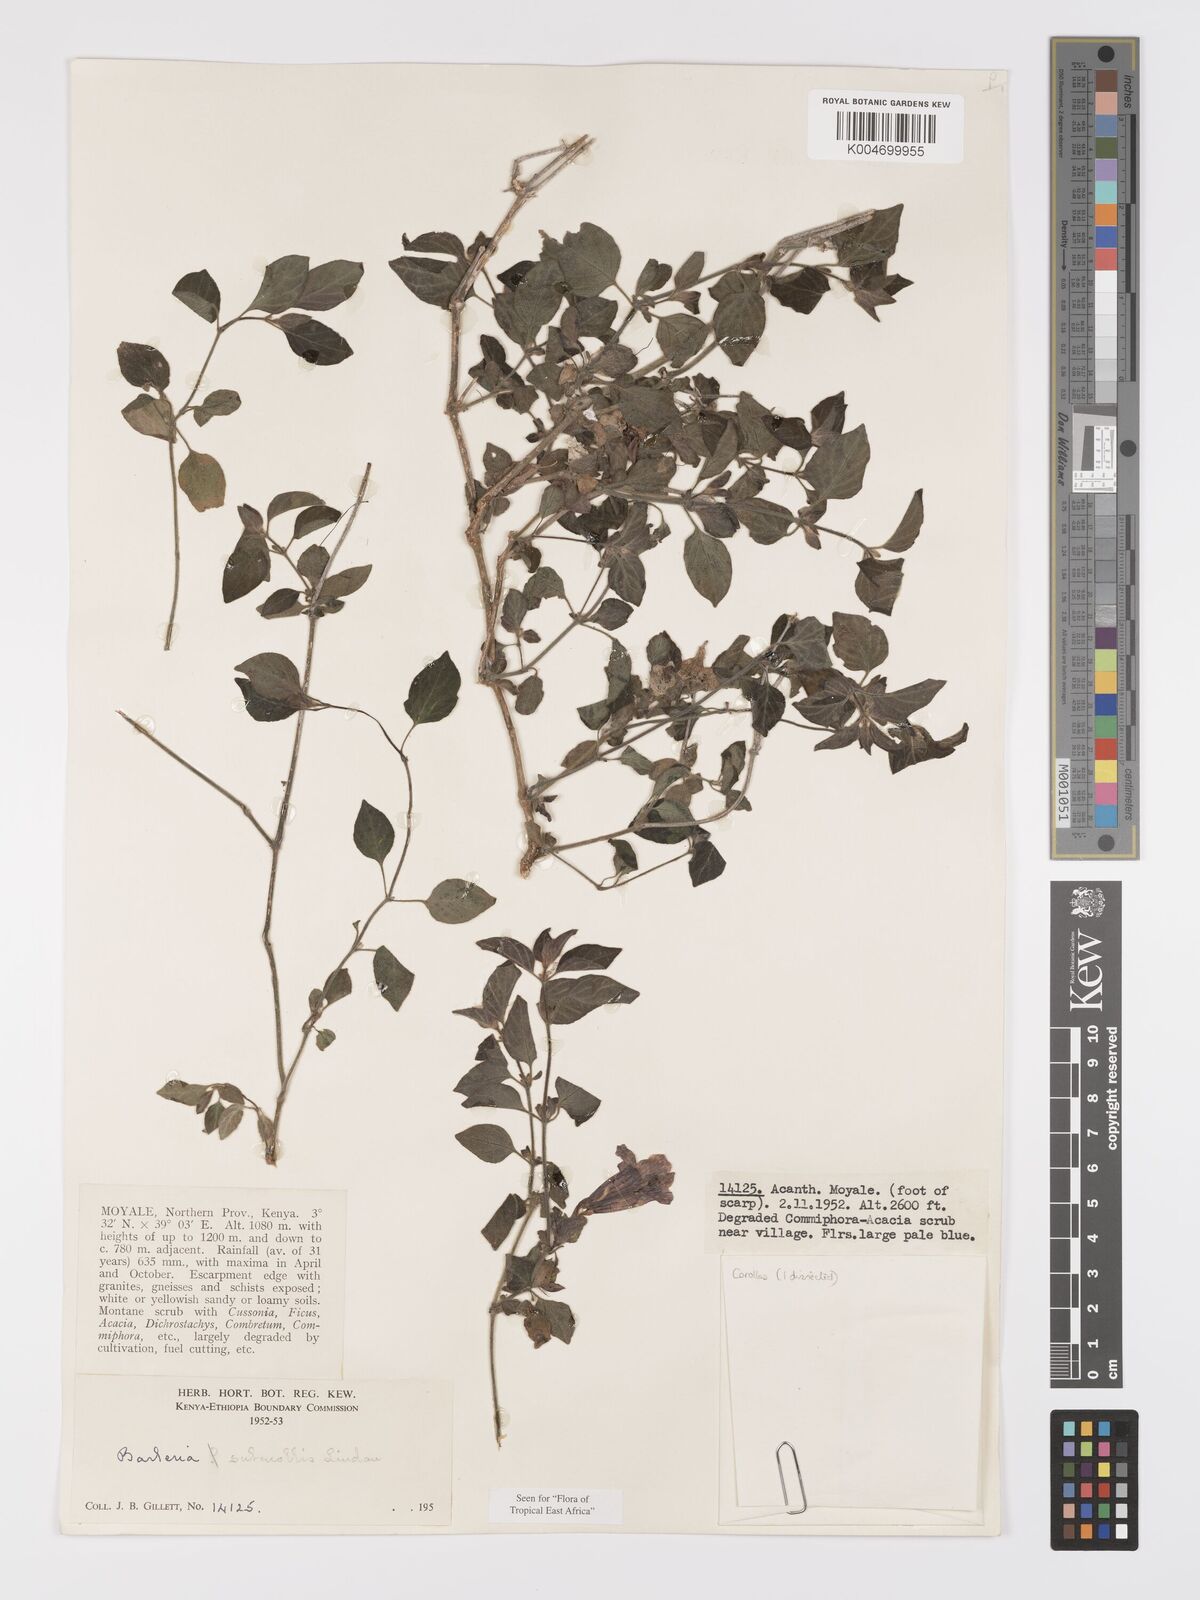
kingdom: Plantae
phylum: Tracheophyta
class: Magnoliopsida
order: Lamiales
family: Acanthaceae
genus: Barleria
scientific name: Barleria submollis
